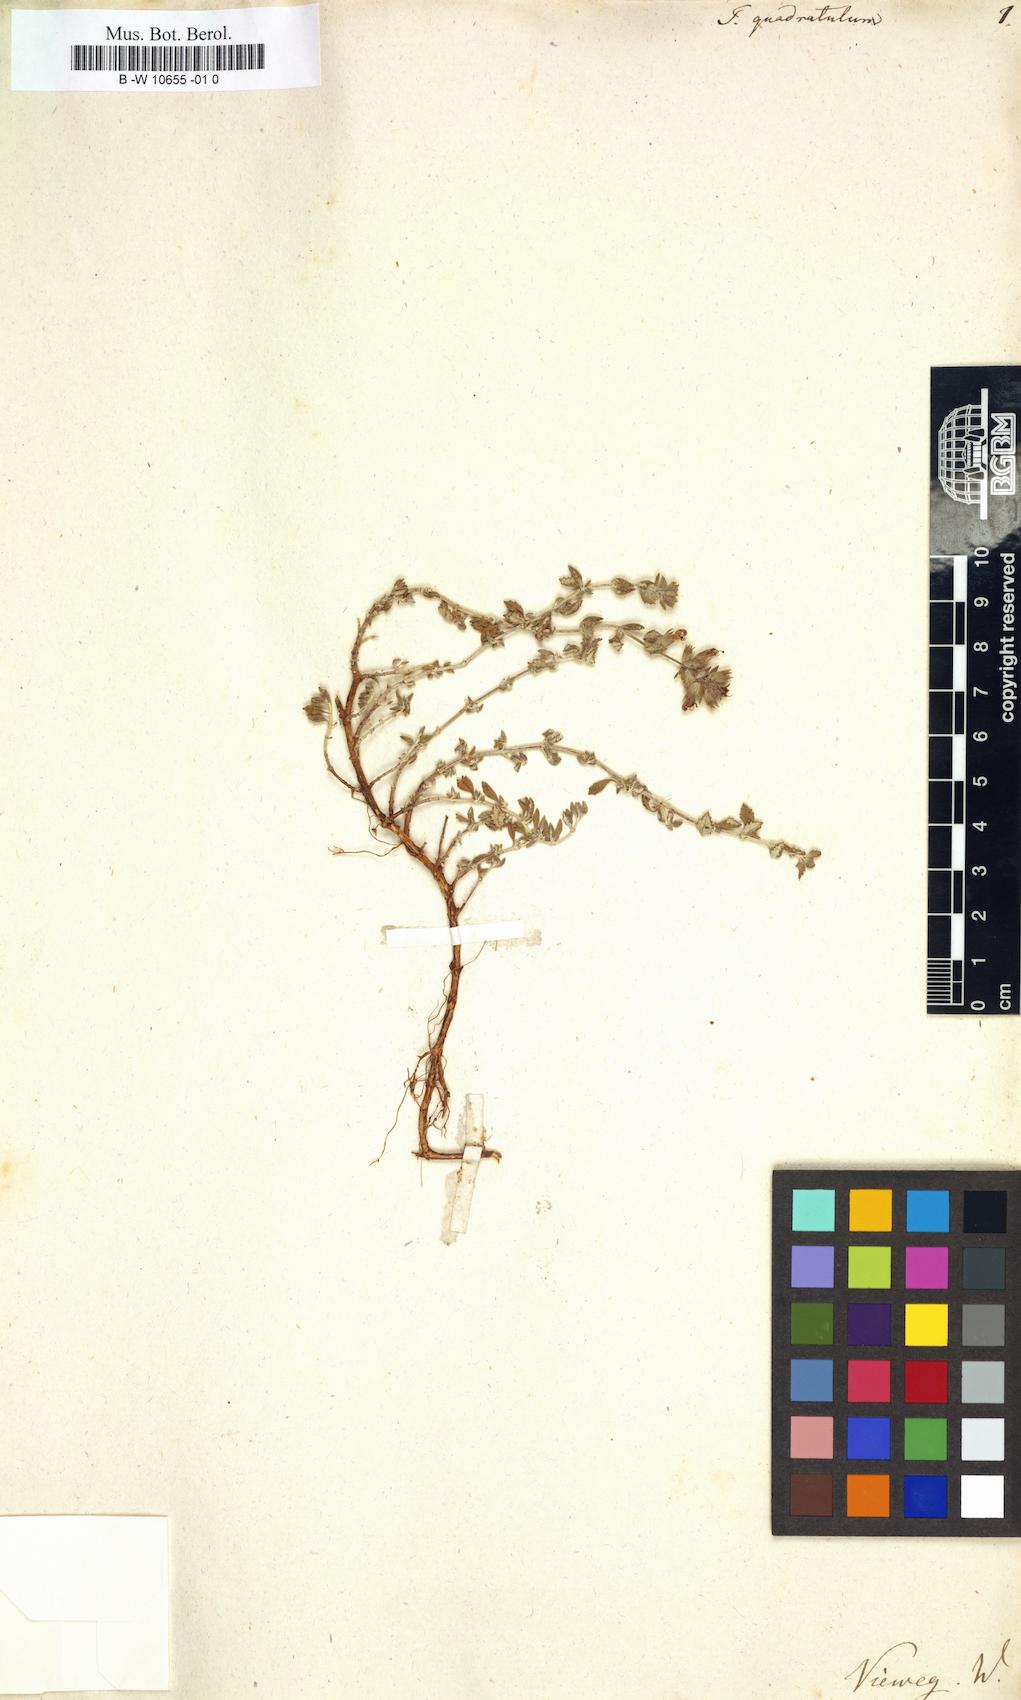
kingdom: Plantae
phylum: Tracheophyta
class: Magnoliopsida
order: Lamiales
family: Lamiaceae
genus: Teucrium
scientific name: Teucrium
